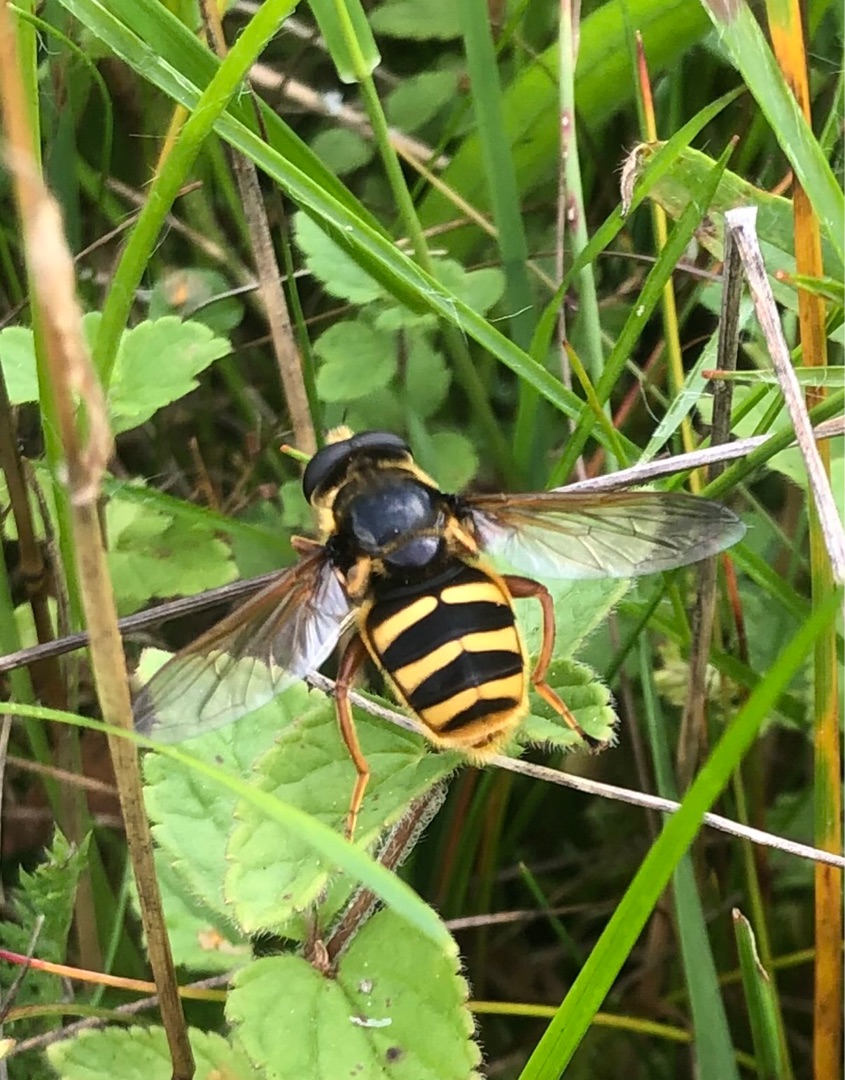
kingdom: Animalia
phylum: Arthropoda
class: Insecta
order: Diptera
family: Syrphidae
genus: Sericomyia
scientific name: Sericomyia silentis
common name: Tørve-silkesvirreflue
